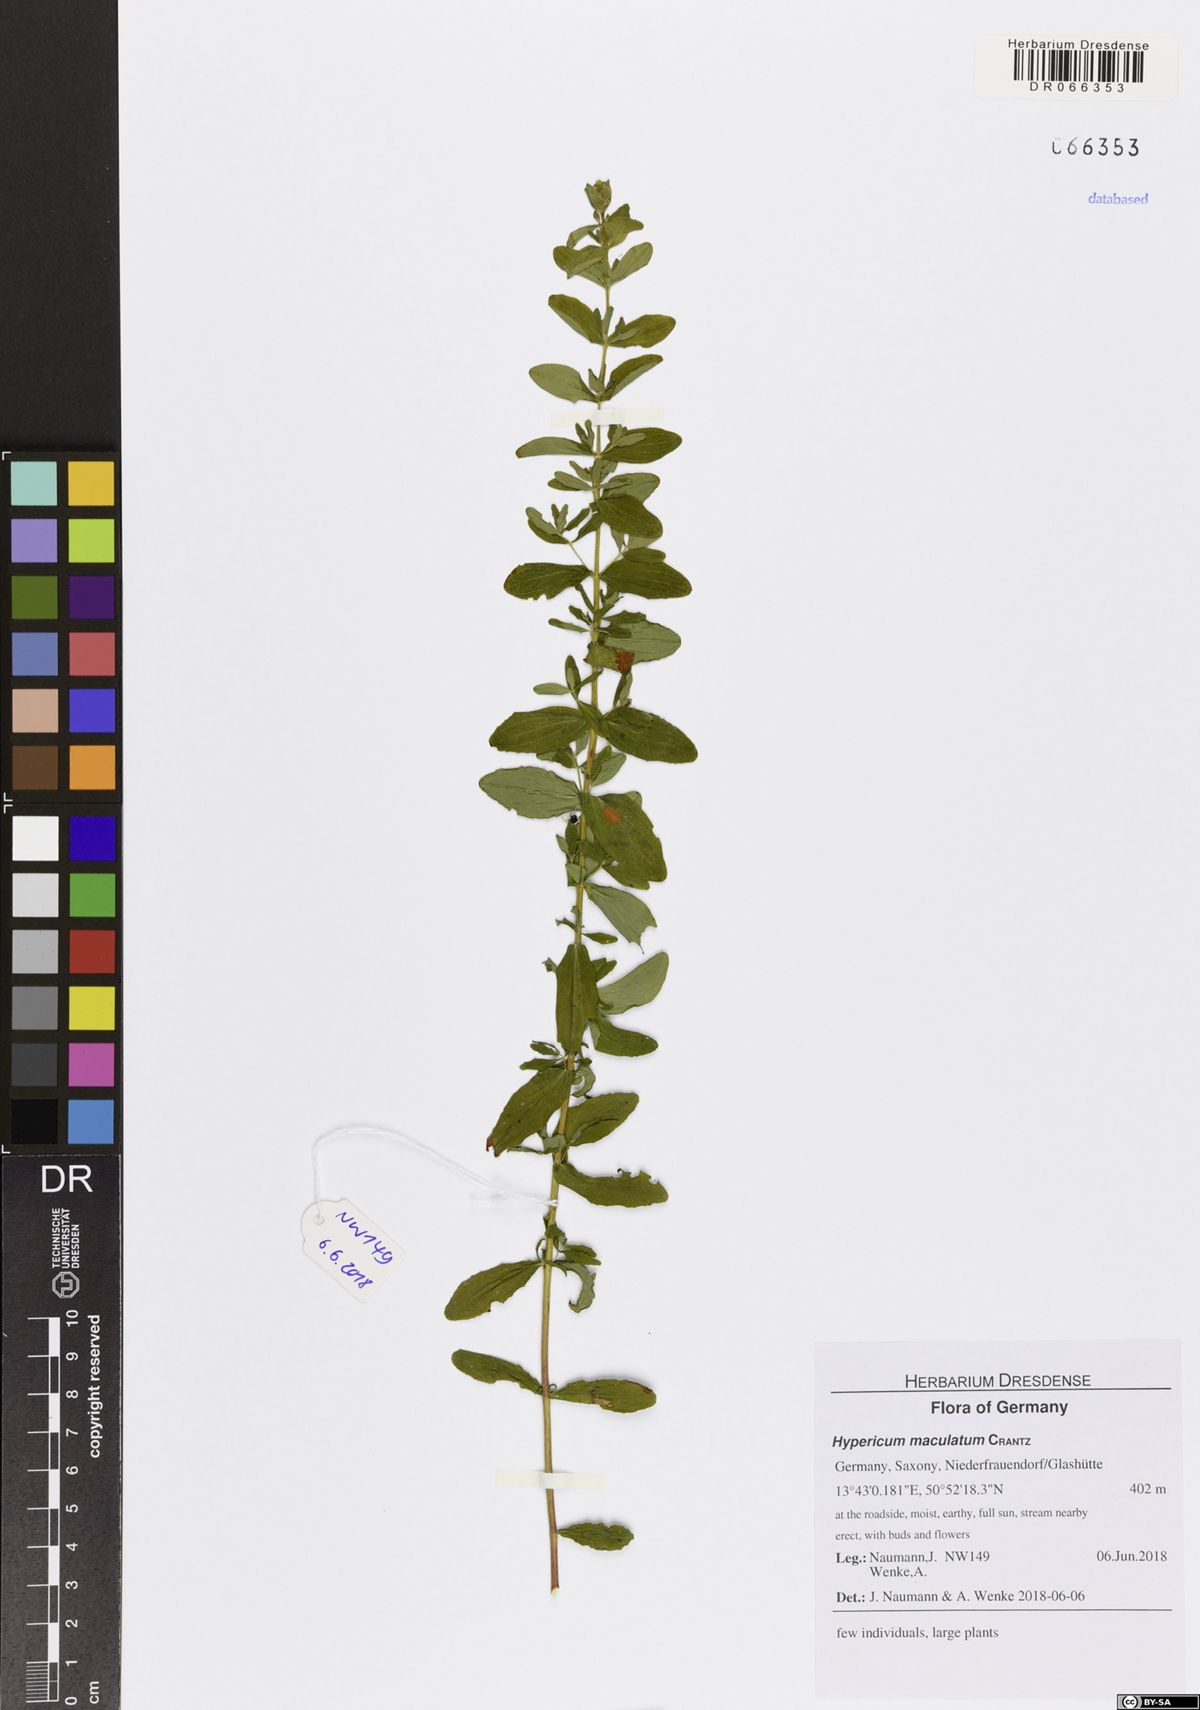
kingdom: Plantae
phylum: Tracheophyta
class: Magnoliopsida
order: Malpighiales
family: Hypericaceae
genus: Hypericum
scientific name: Hypericum maculatum
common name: Imperforate st. john's-wort
